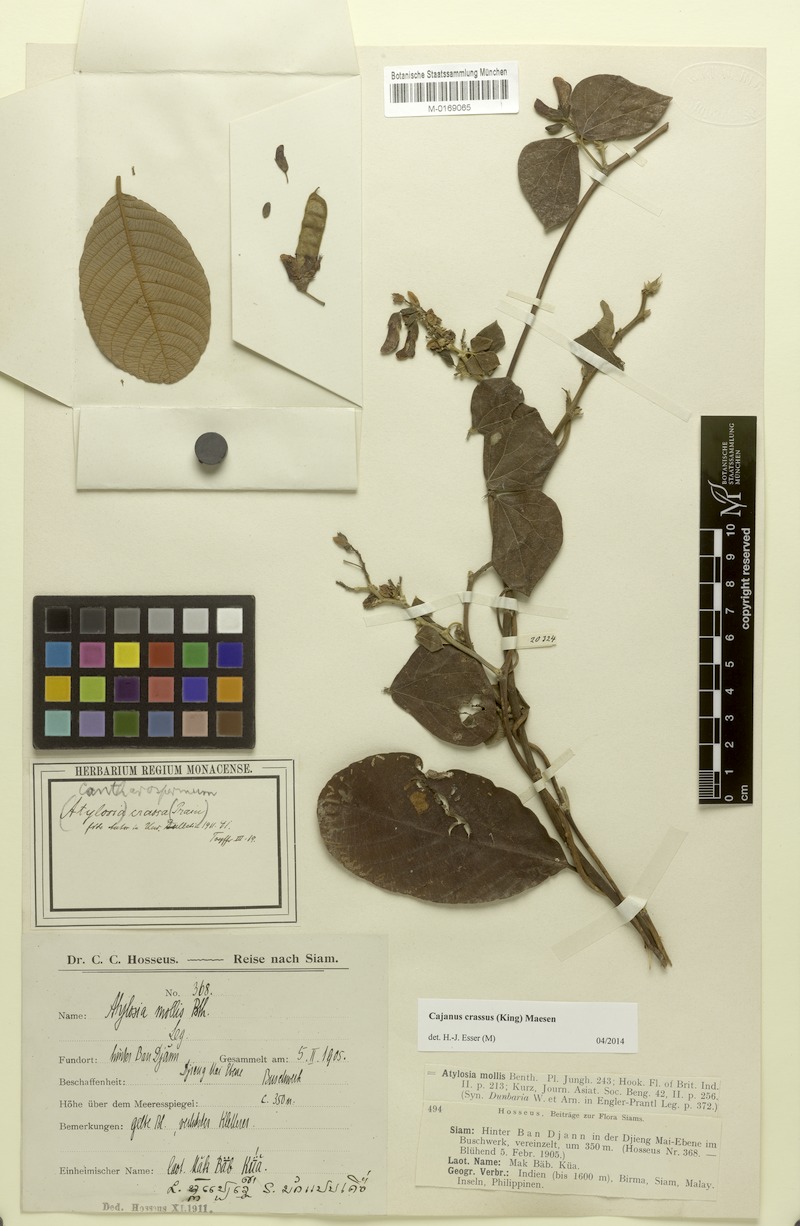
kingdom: Plantae
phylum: Tracheophyta
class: Magnoliopsida
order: Fabales
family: Fabaceae
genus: Cajanus
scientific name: Cajanus crassus
